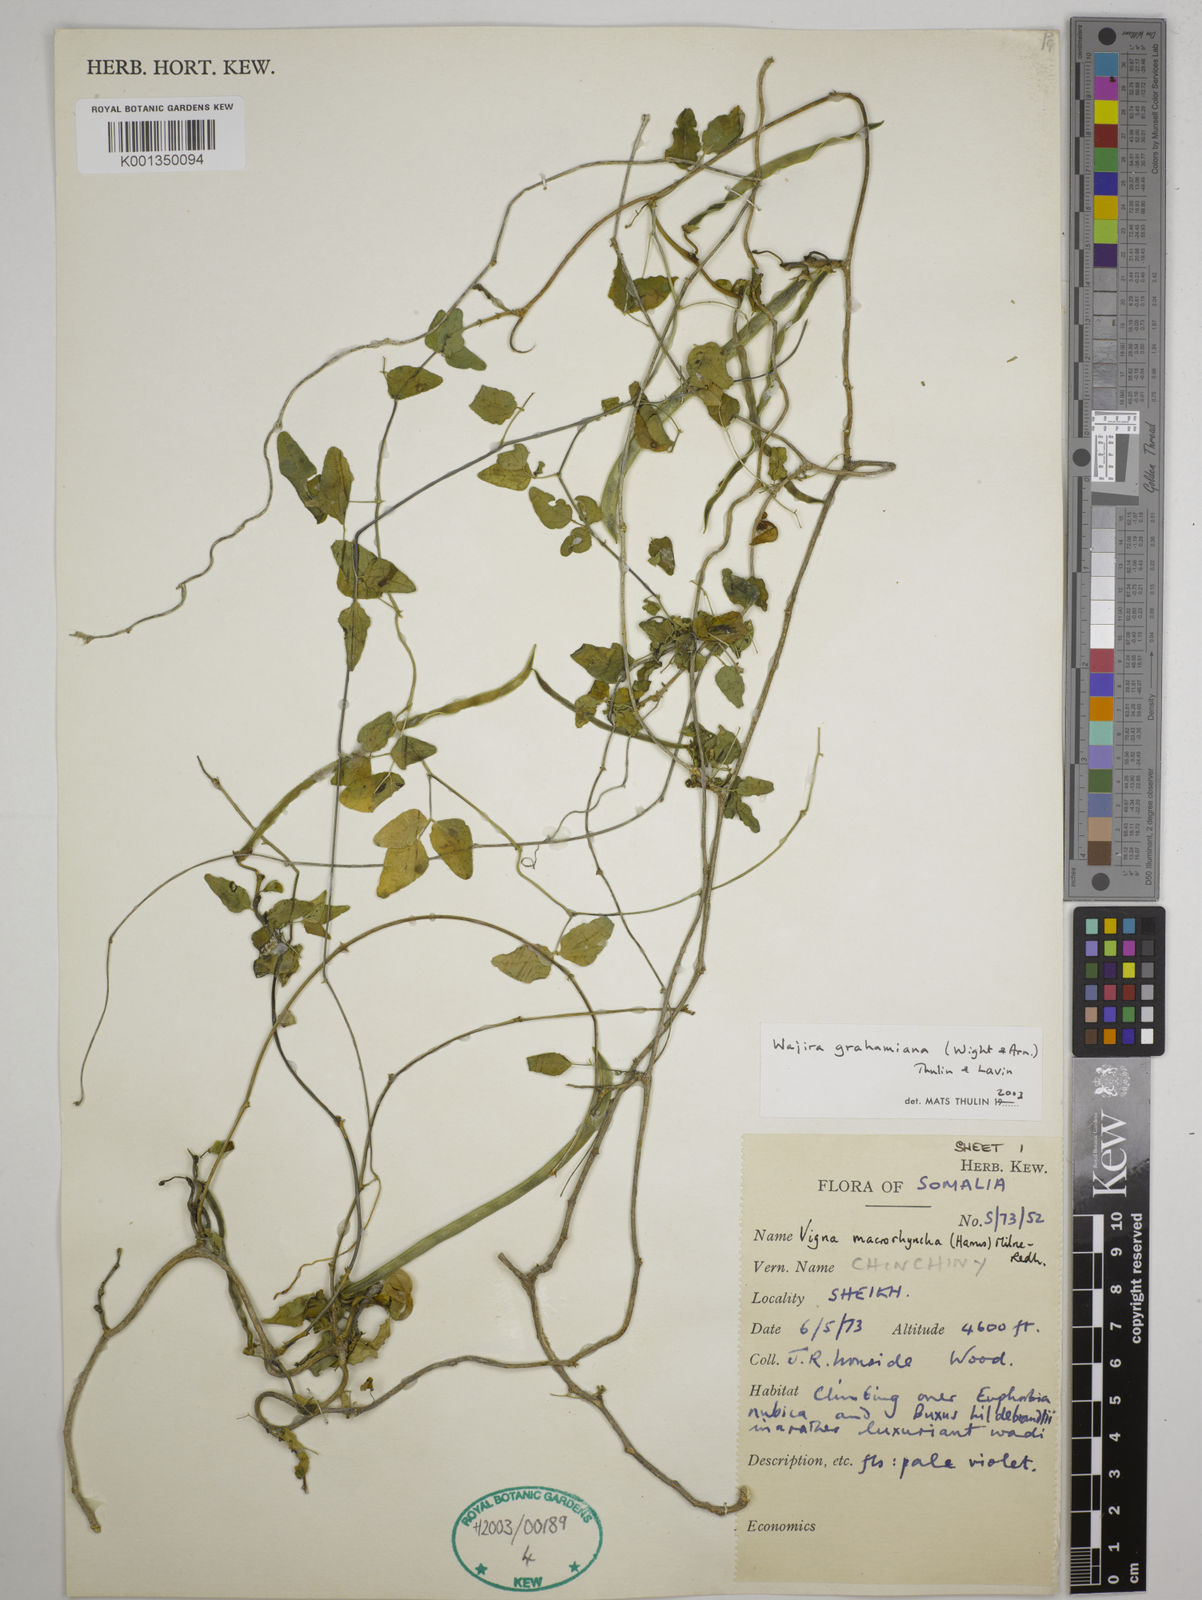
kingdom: Plantae
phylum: Tracheophyta
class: Magnoliopsida
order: Fabales
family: Fabaceae
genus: Wajira
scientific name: Wajira grahamiana
